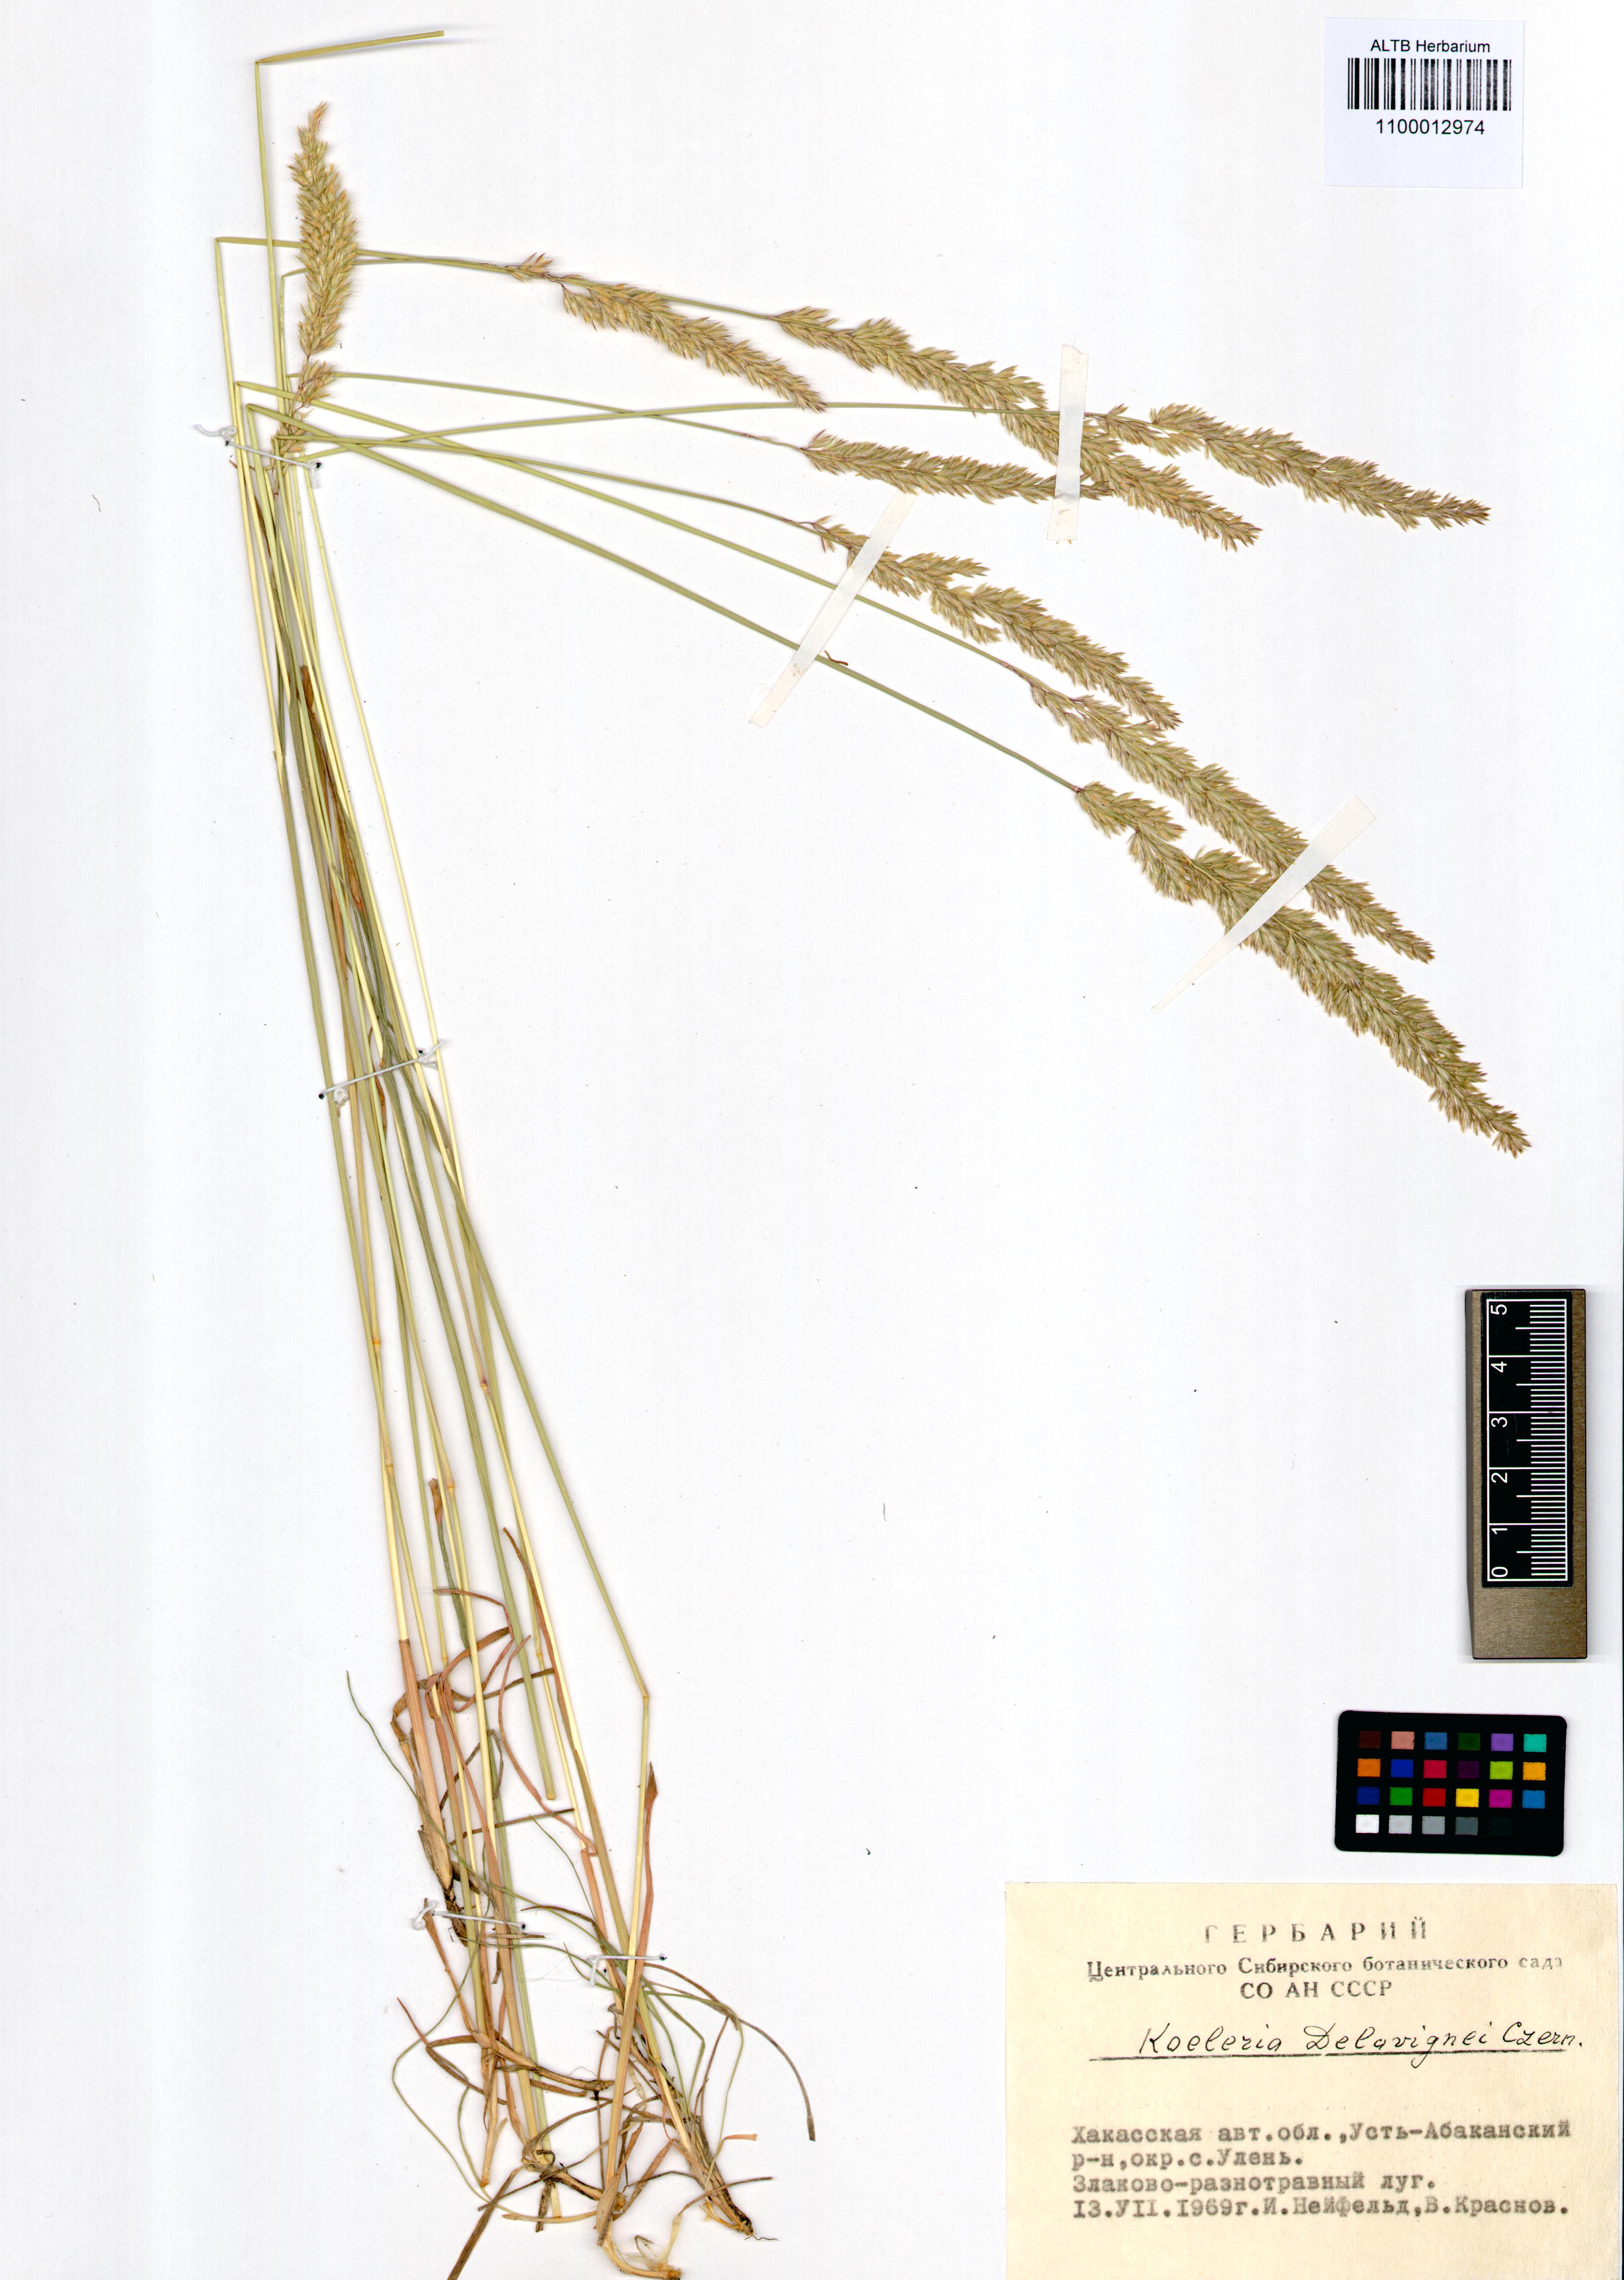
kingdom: Plantae
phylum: Tracheophyta
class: Liliopsida
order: Poales
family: Poaceae
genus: Koeleria
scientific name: Koeleria delavignei
